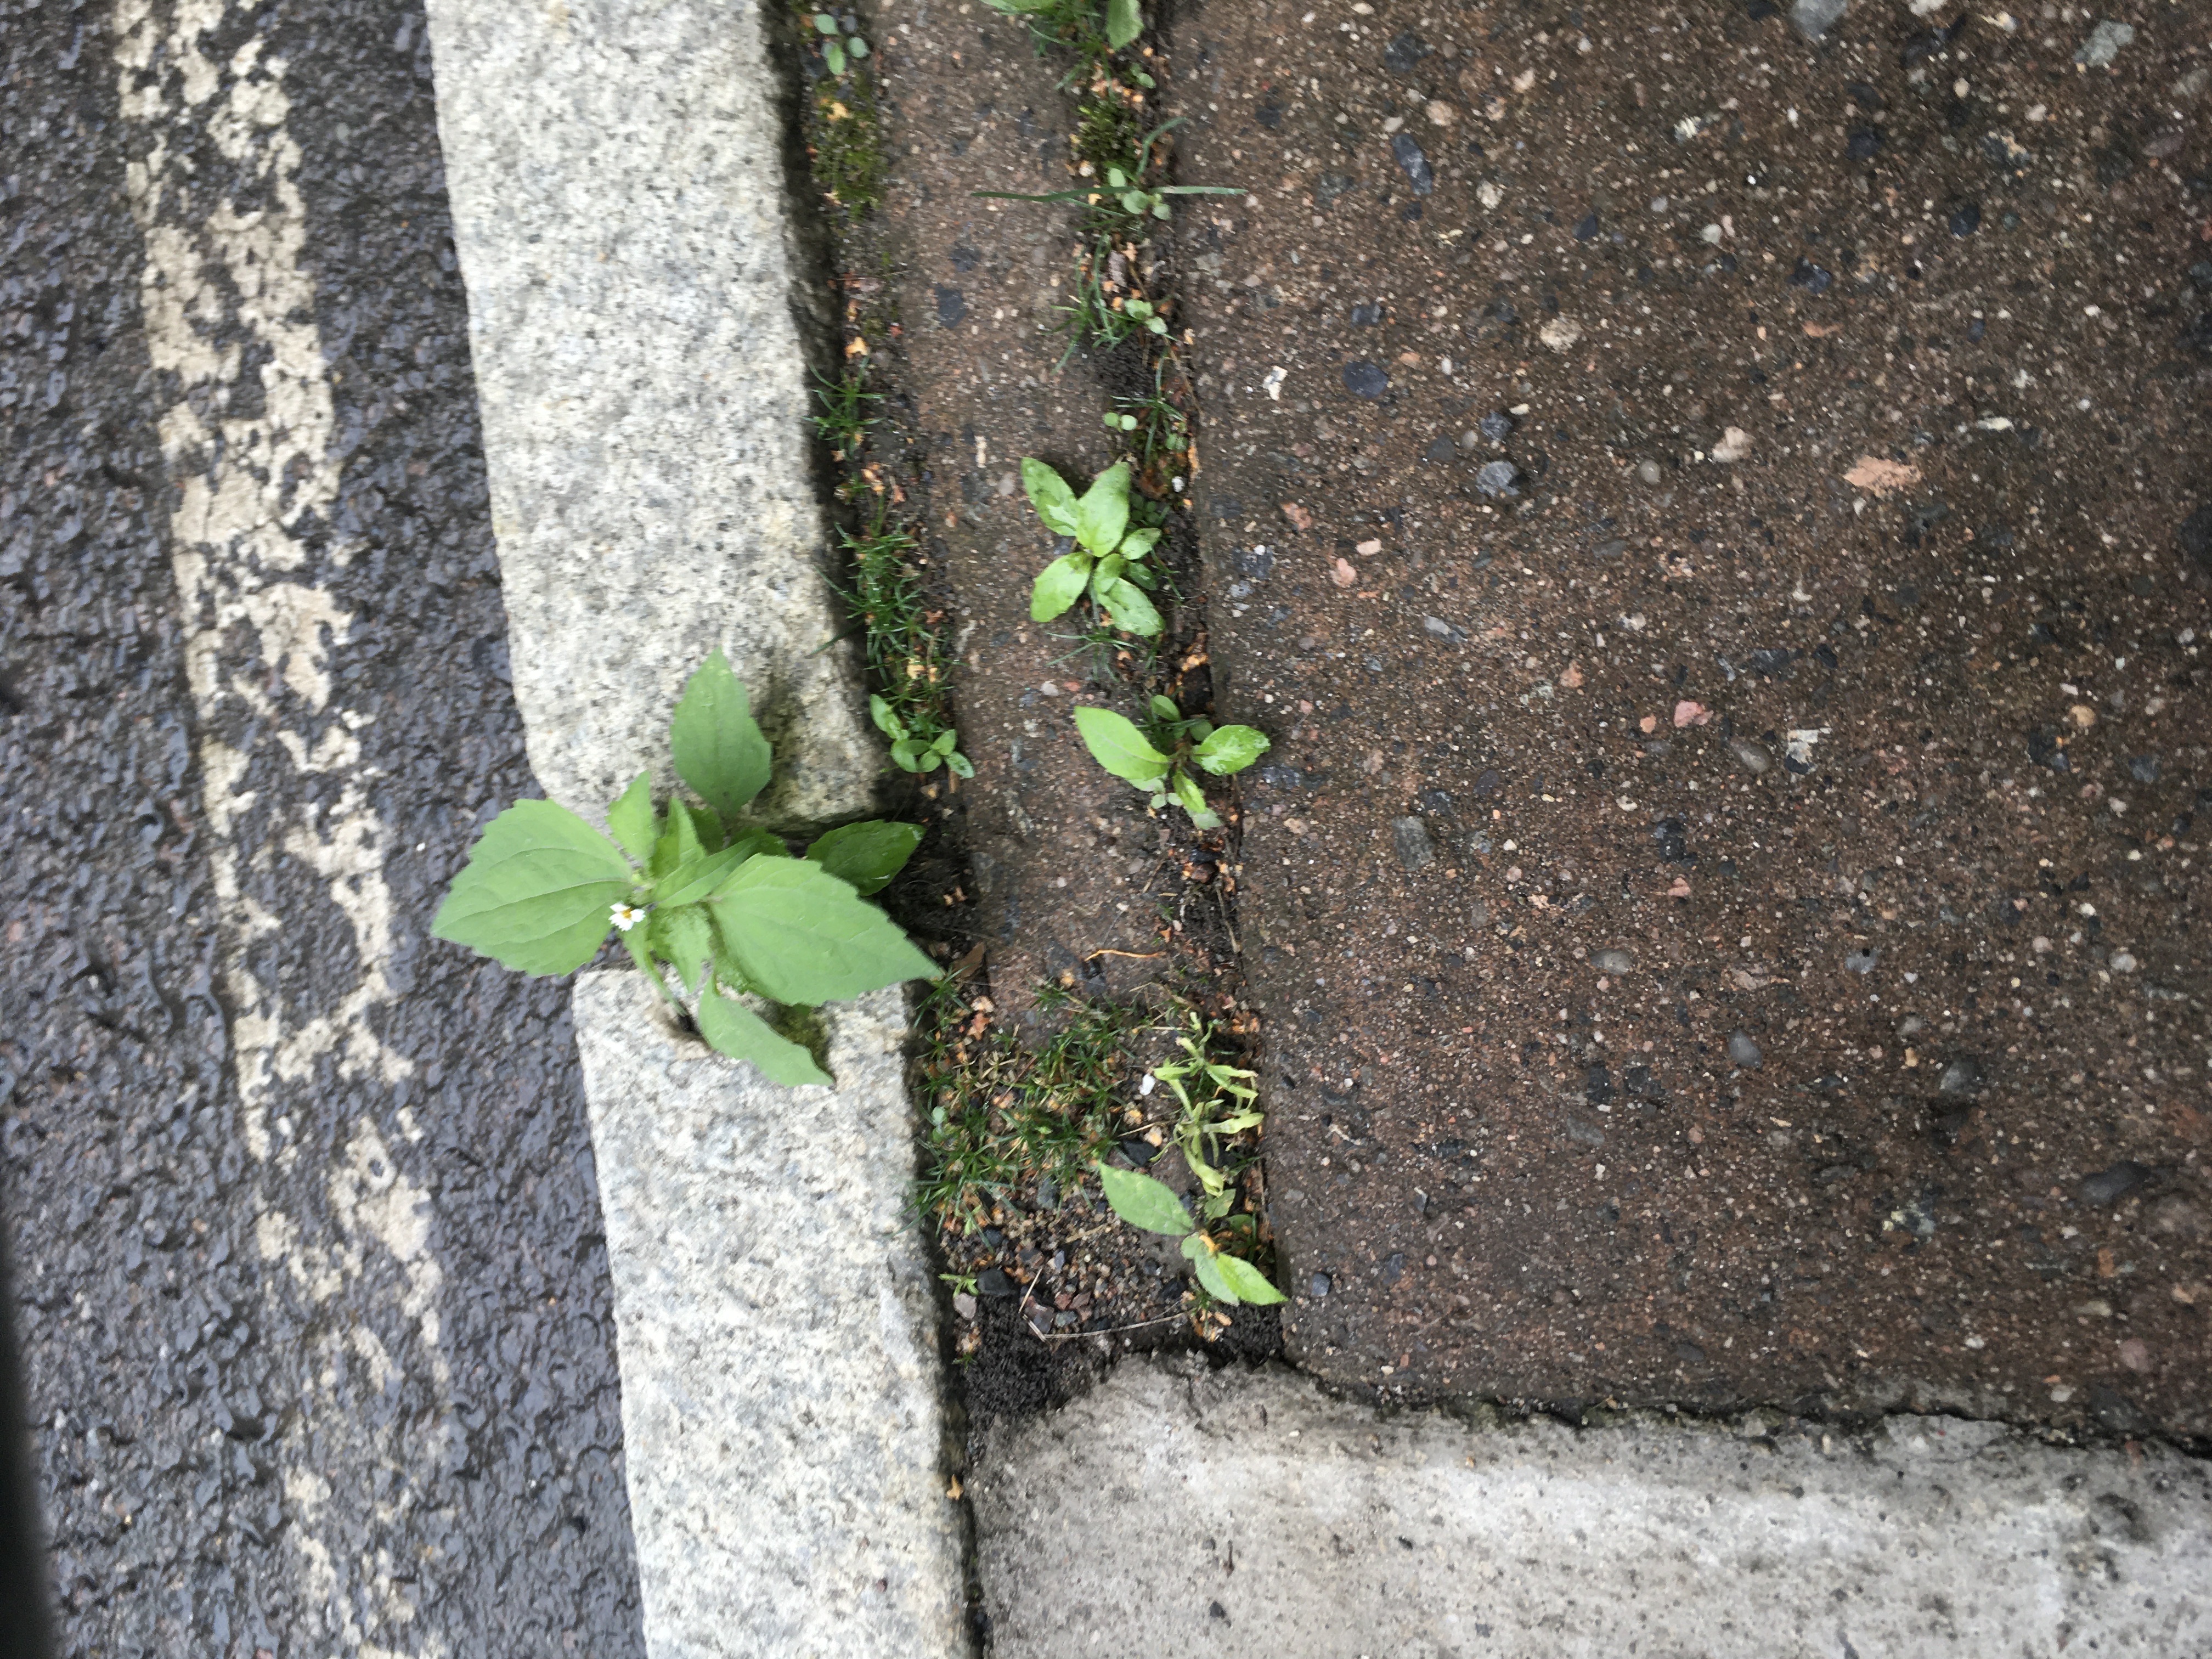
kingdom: Plantae
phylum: Tracheophyta
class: Magnoliopsida
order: Asterales
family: Asteraceae
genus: Galinsoga
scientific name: Galinsoga quadriradiata
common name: nesleskjellfrø
